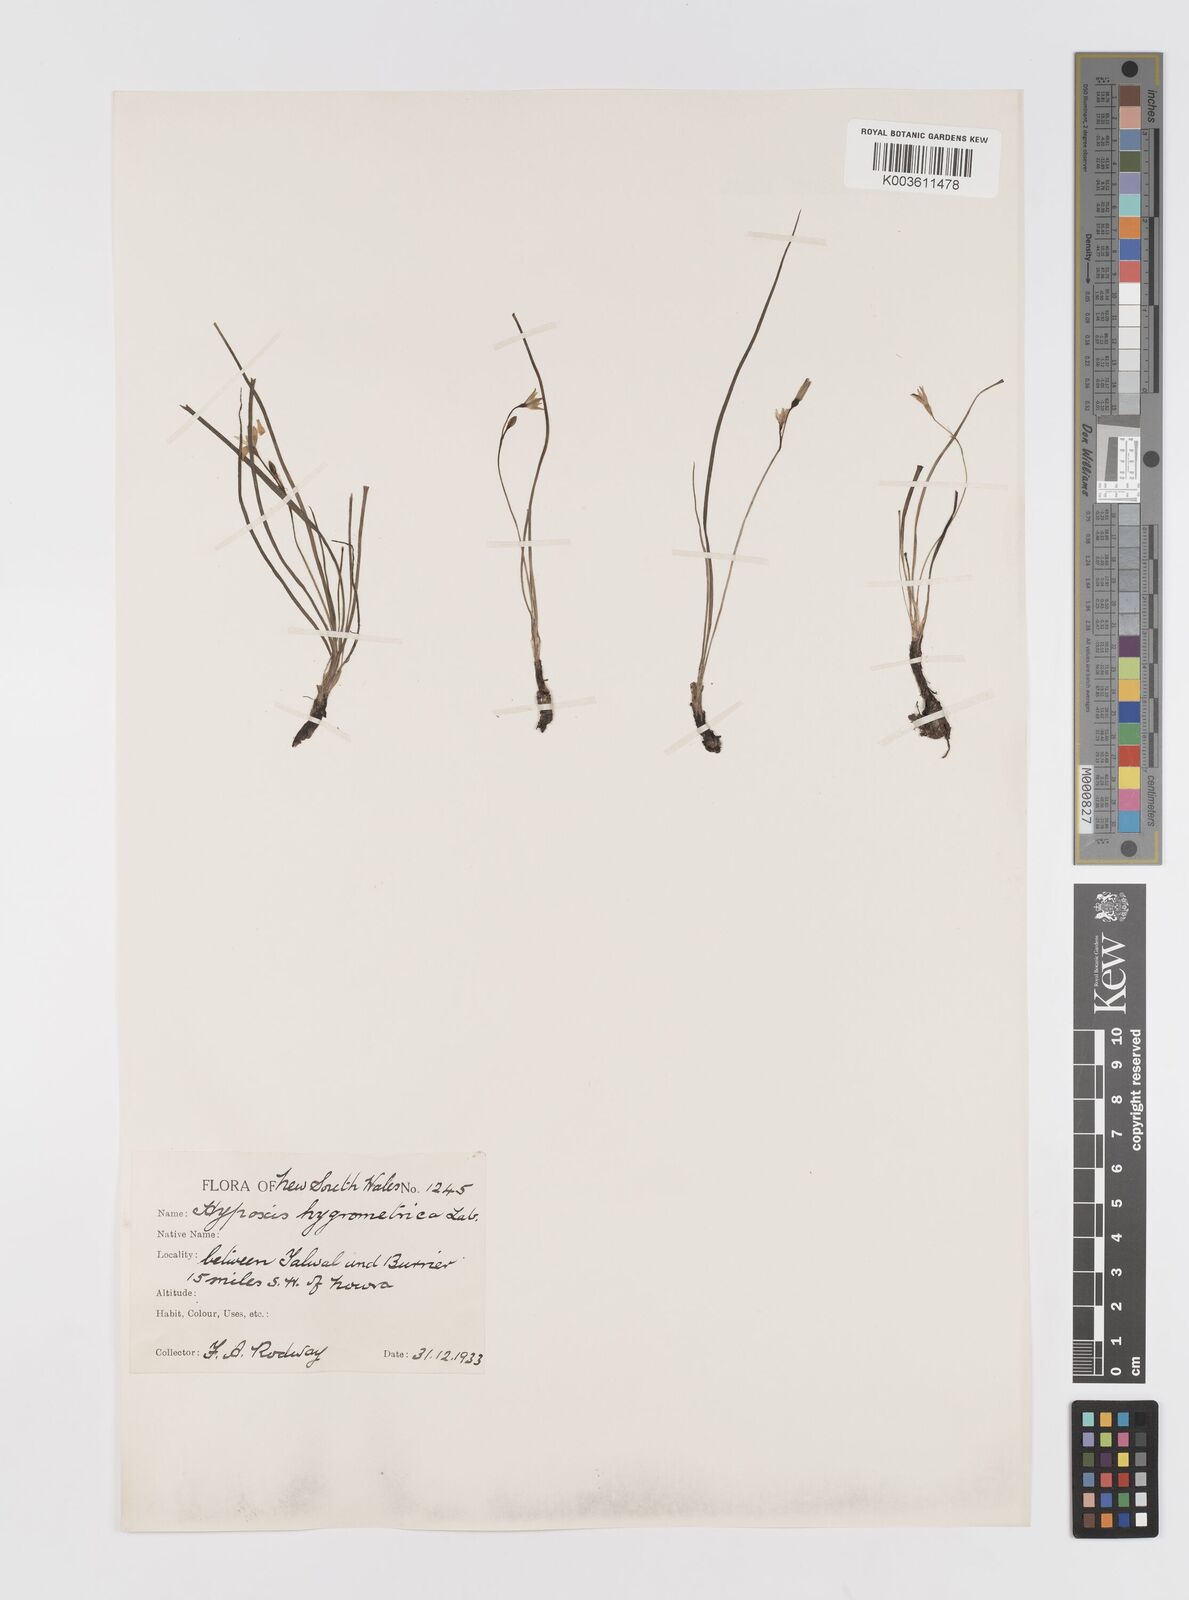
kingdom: Plantae
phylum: Tracheophyta
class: Liliopsida
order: Asparagales
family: Hypoxidaceae
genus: Hypoxis
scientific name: Hypoxis hygrometrica
